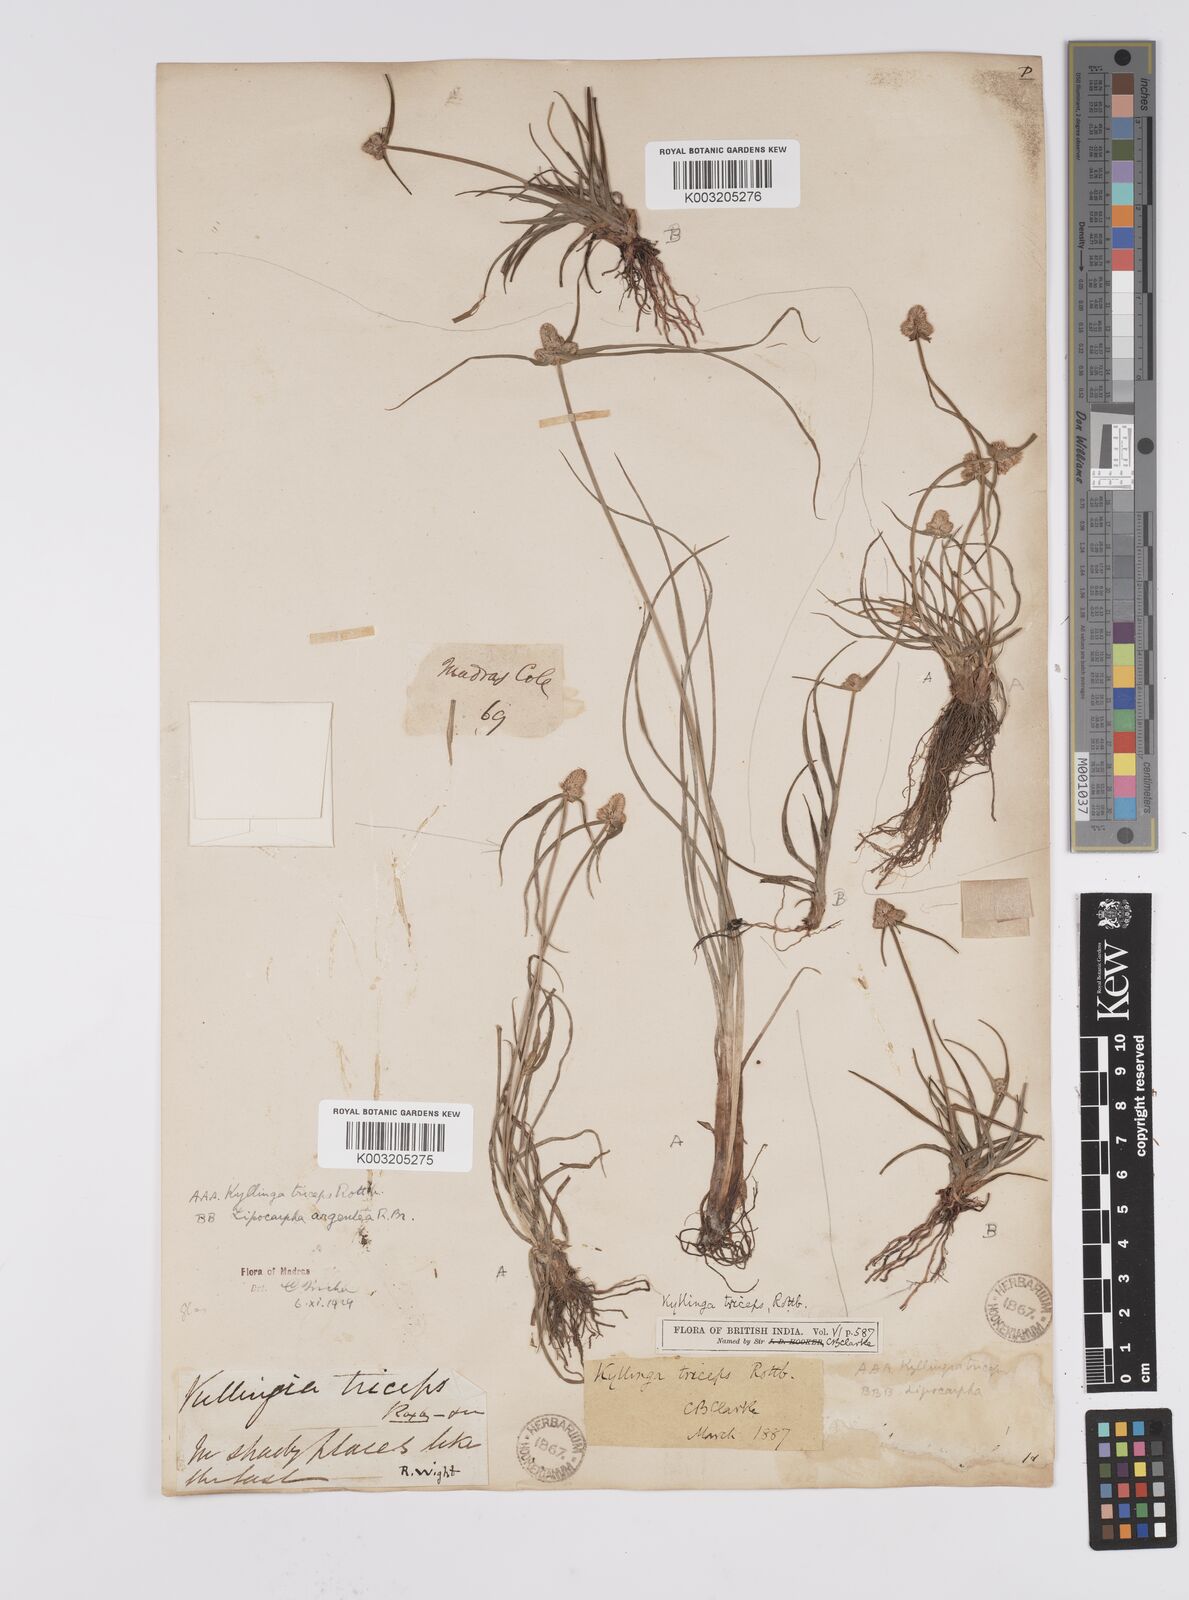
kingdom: Plantae
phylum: Tracheophyta
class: Liliopsida
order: Poales
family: Cyperaceae
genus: Cyperus
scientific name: Cyperus
